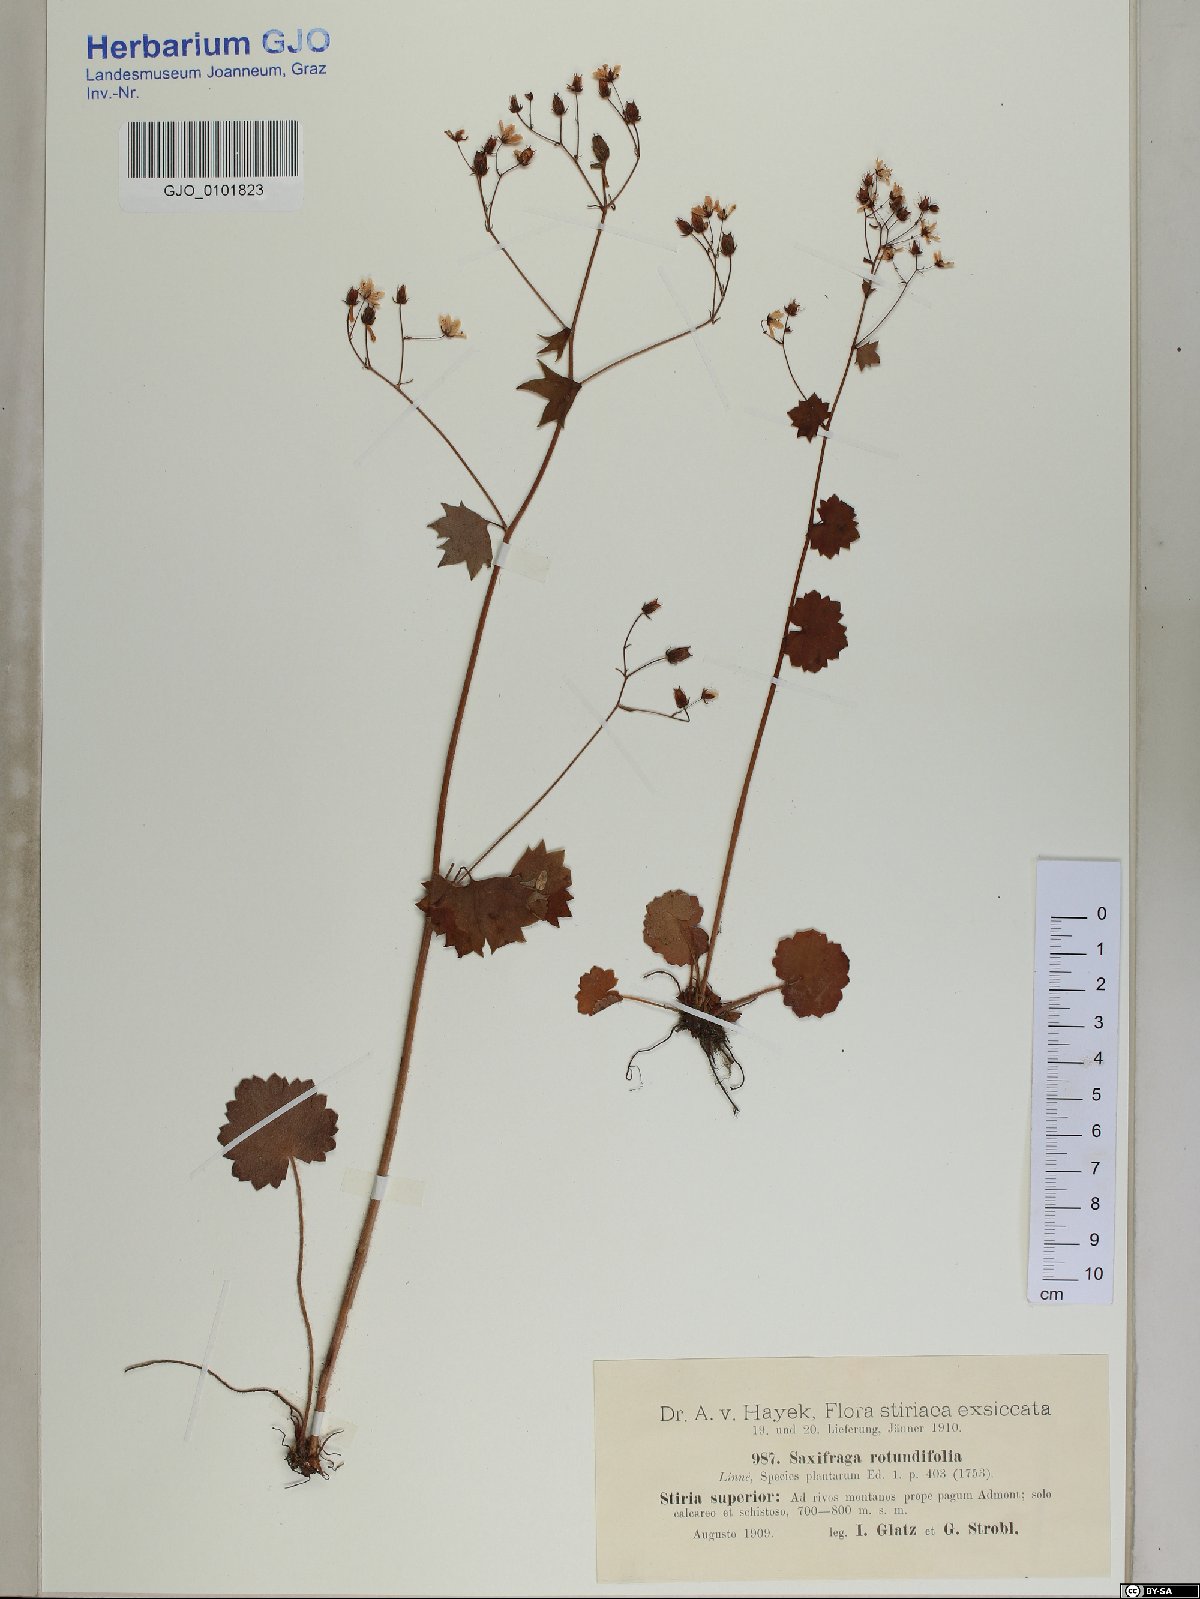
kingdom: Plantae
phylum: Tracheophyta
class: Magnoliopsida
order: Saxifragales
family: Saxifragaceae
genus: Saxifraga
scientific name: Saxifraga rotundifolia
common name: Round-leaved saxifrage
